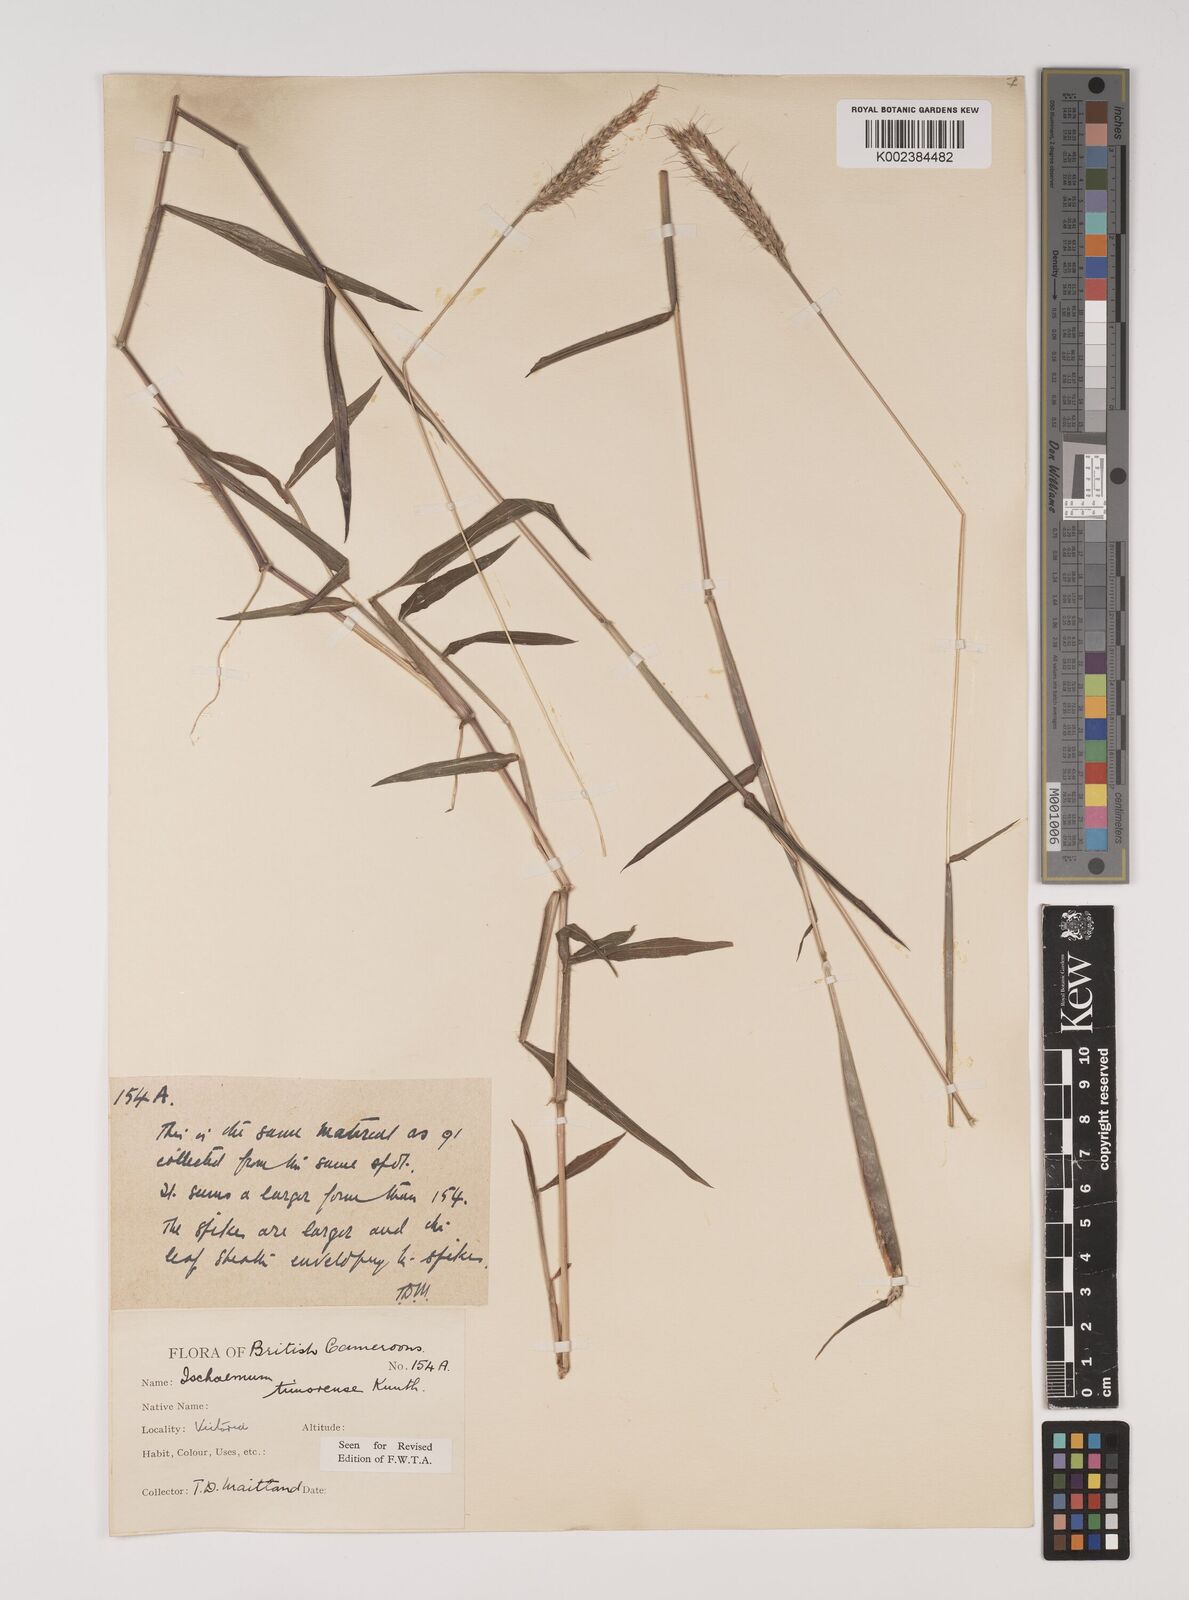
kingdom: Plantae
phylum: Tracheophyta
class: Liliopsida
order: Poales
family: Poaceae
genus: Ischaemum
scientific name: Ischaemum timorense
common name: Stalkleaf murainagrass
